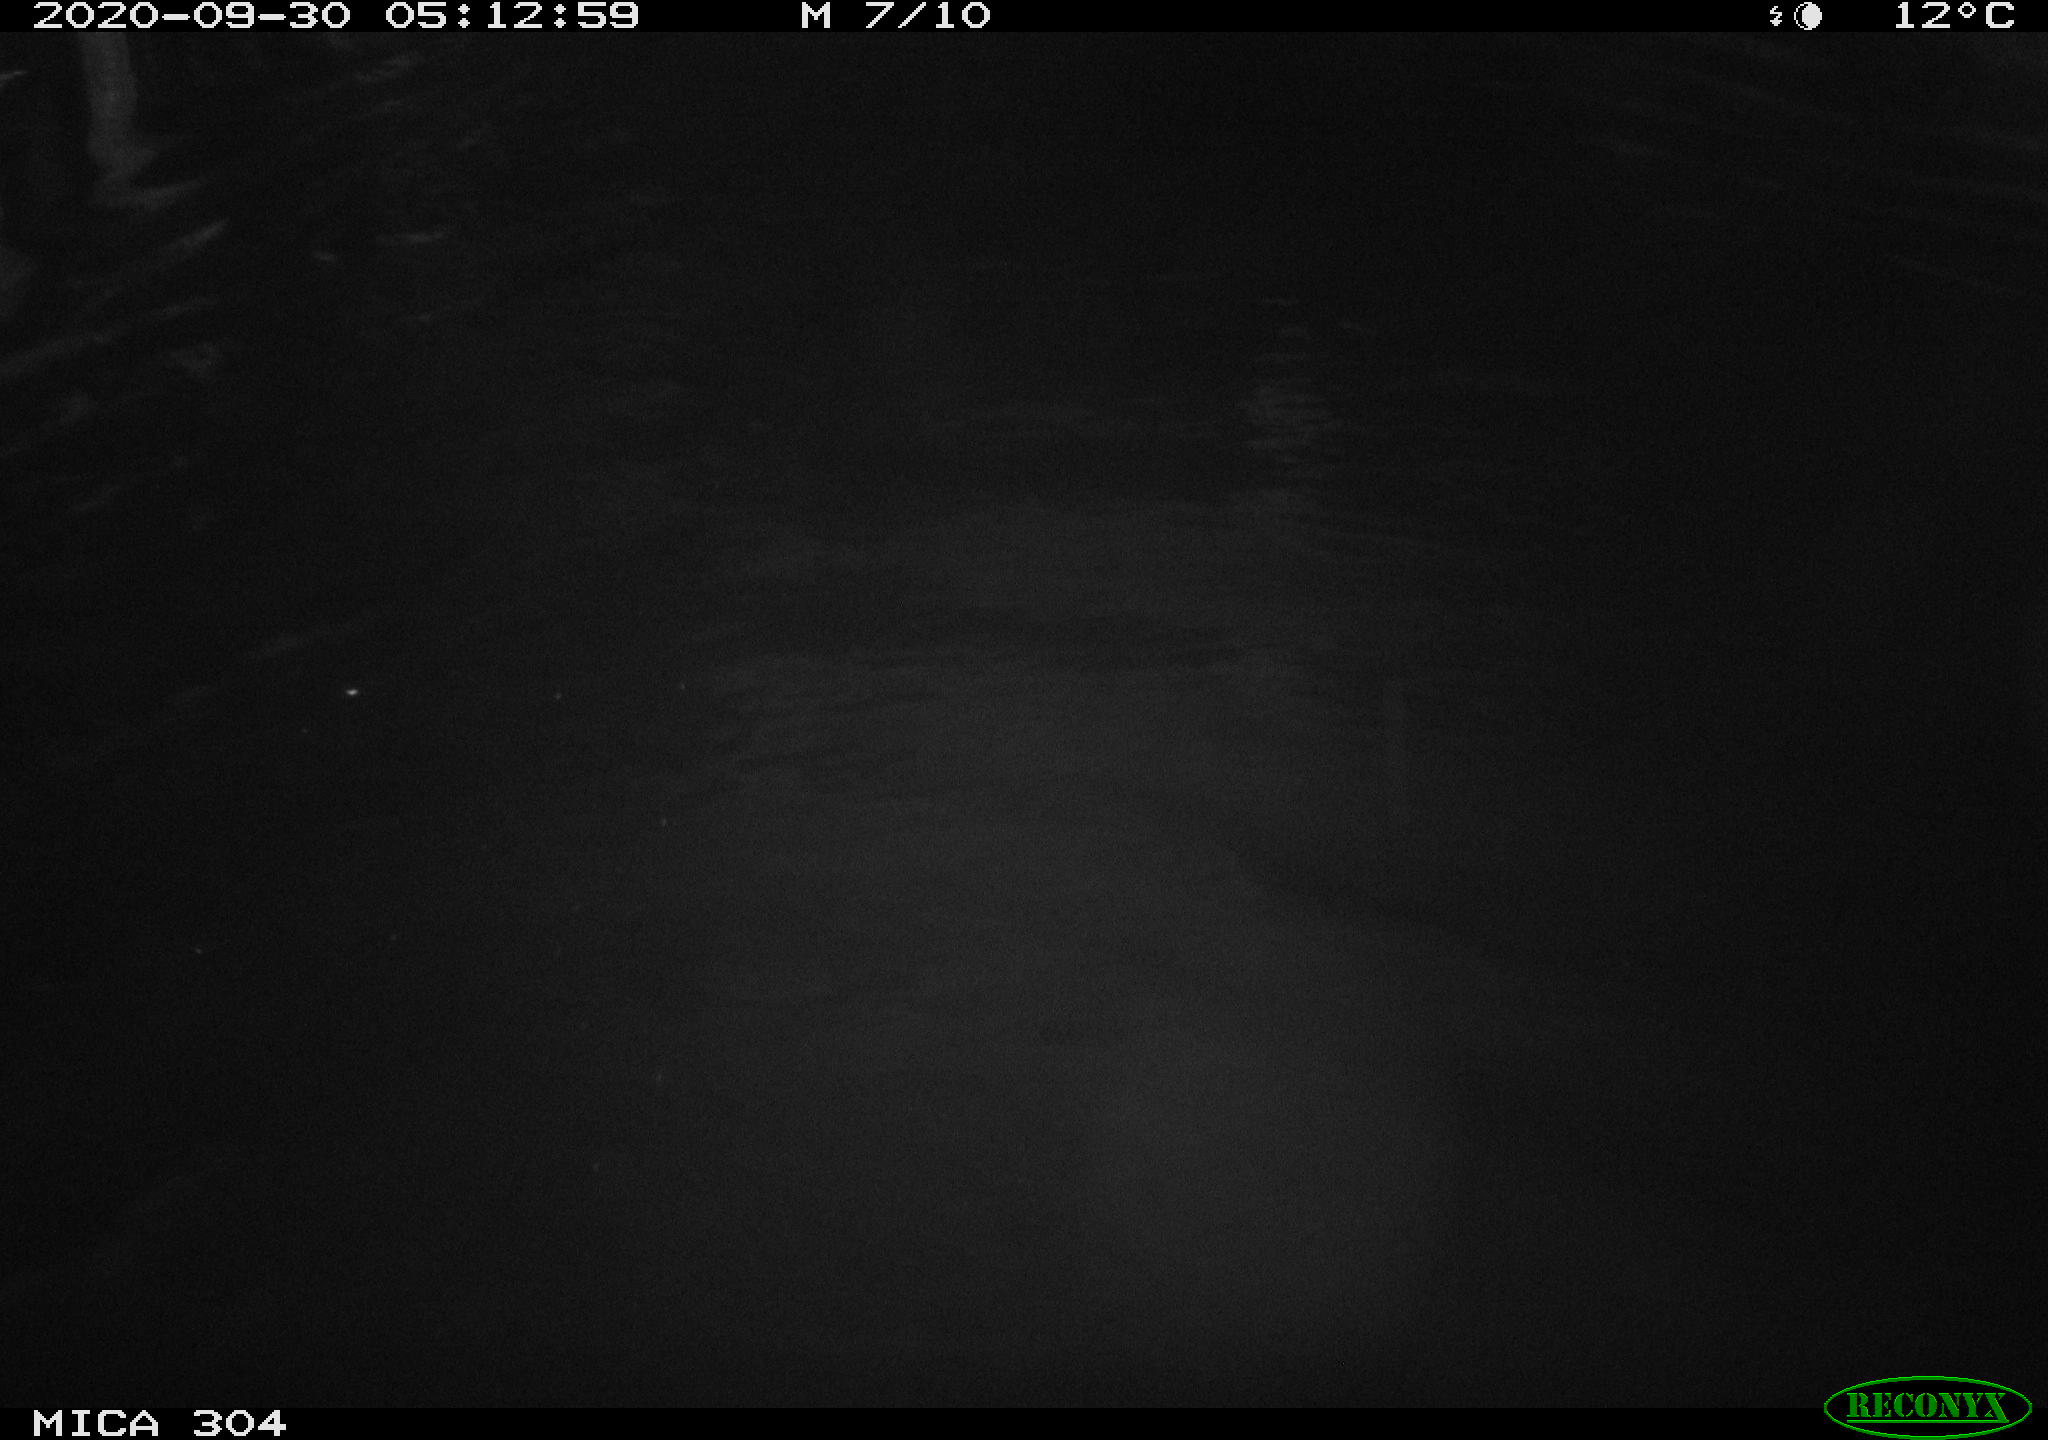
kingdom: Animalia
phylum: Chordata
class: Mammalia
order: Rodentia
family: Cricetidae
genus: Ondatra
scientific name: Ondatra zibethicus
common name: Muskrat
